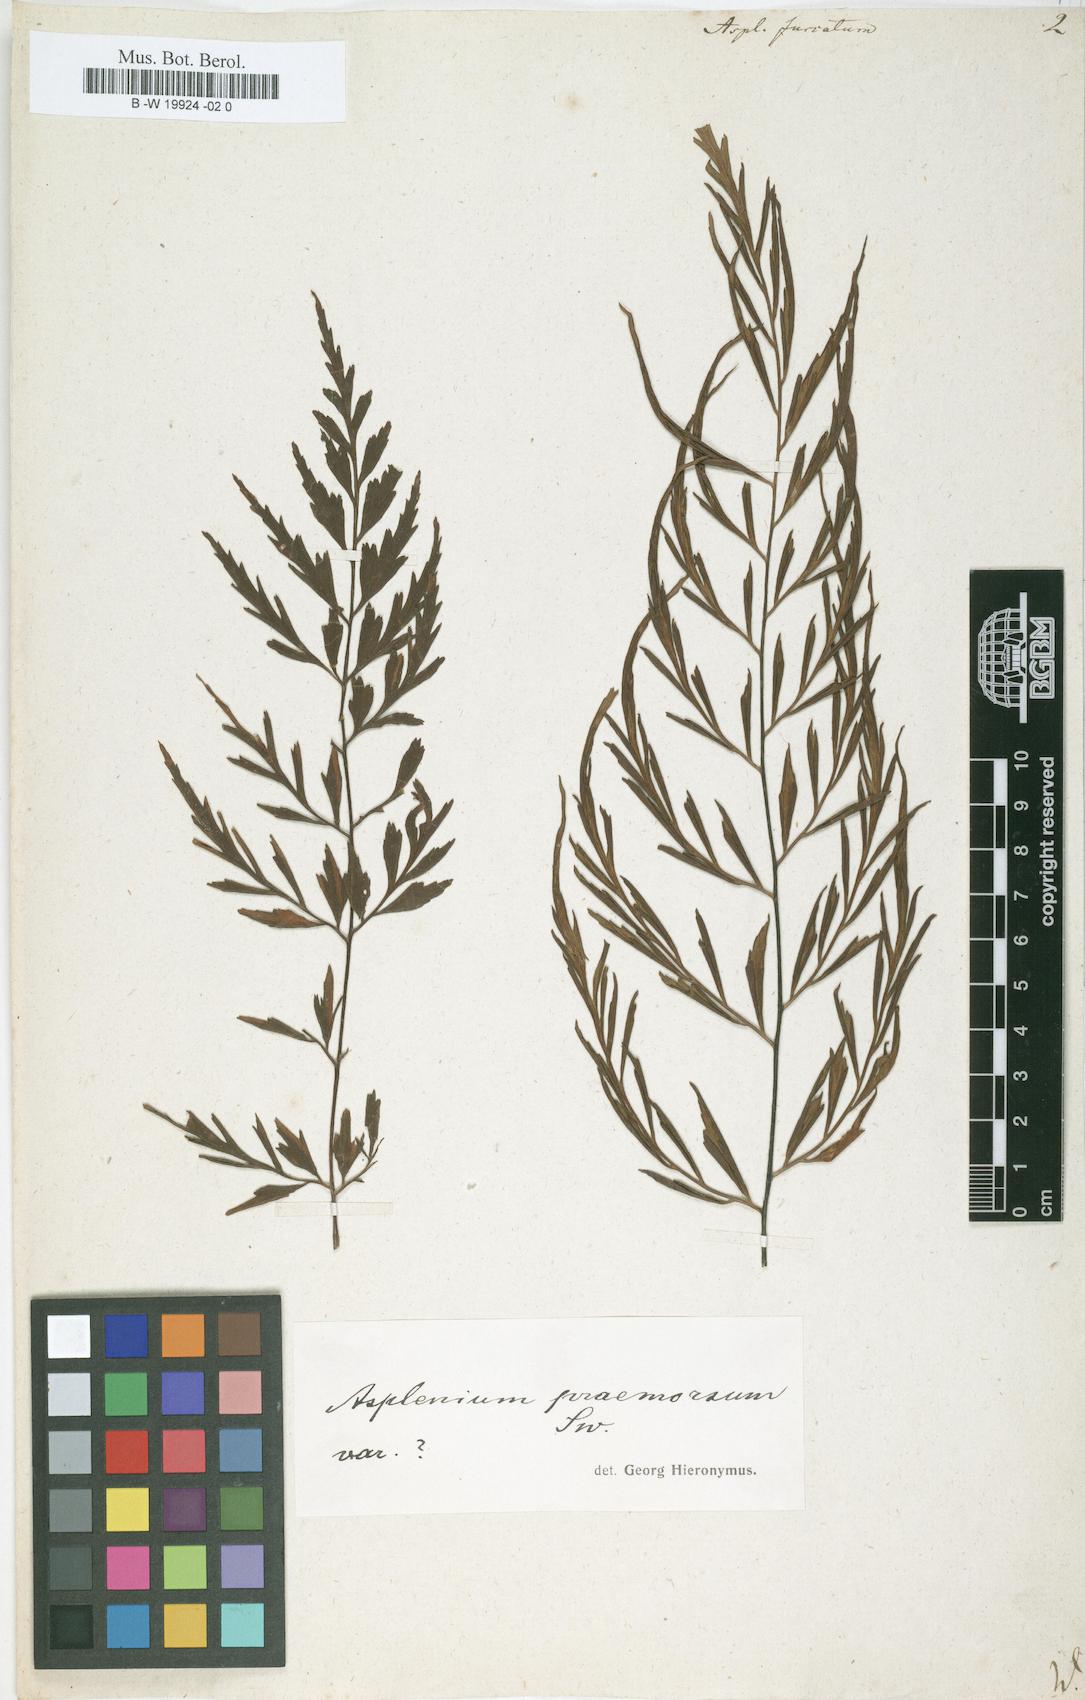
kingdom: Plantae
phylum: Tracheophyta
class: Polypodiopsida
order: Polypodiales
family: Aspleniaceae
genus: Asplenium
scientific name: Asplenium furcatum
